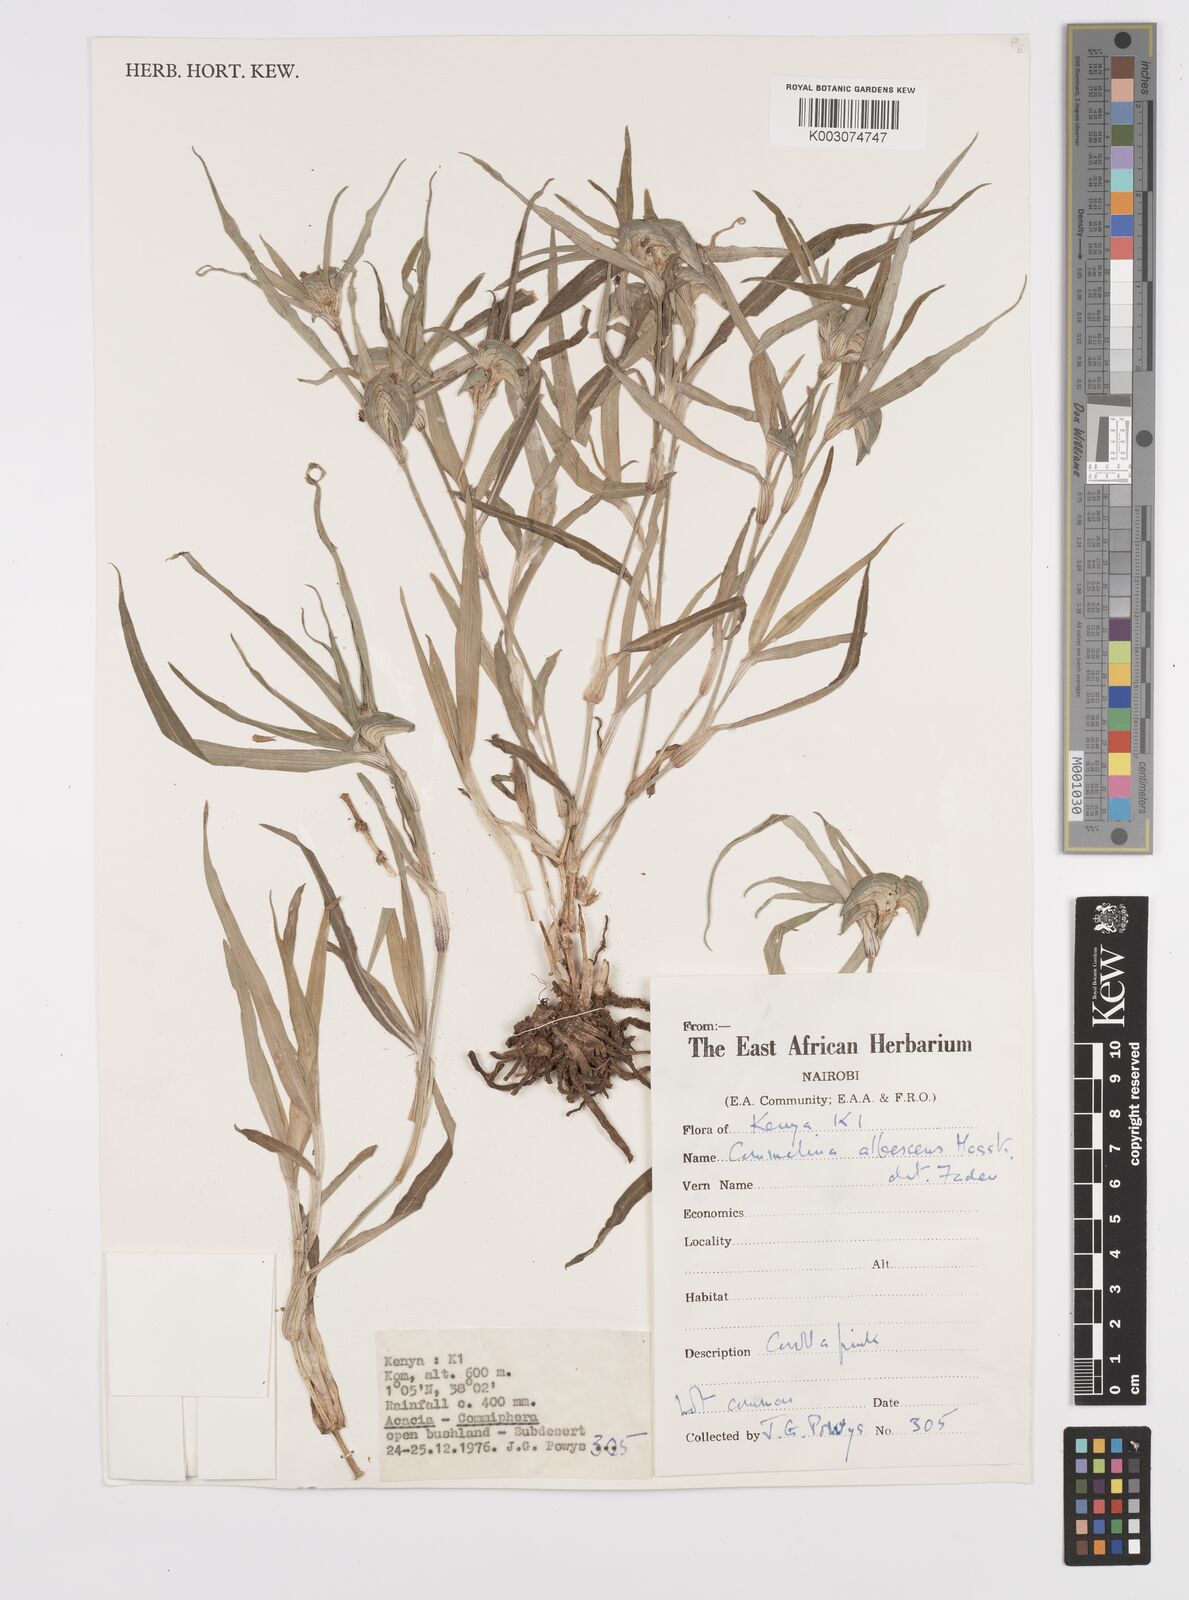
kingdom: Plantae
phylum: Tracheophyta
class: Liliopsida
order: Commelinales
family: Commelinaceae
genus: Commelina
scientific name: Commelina albescens
